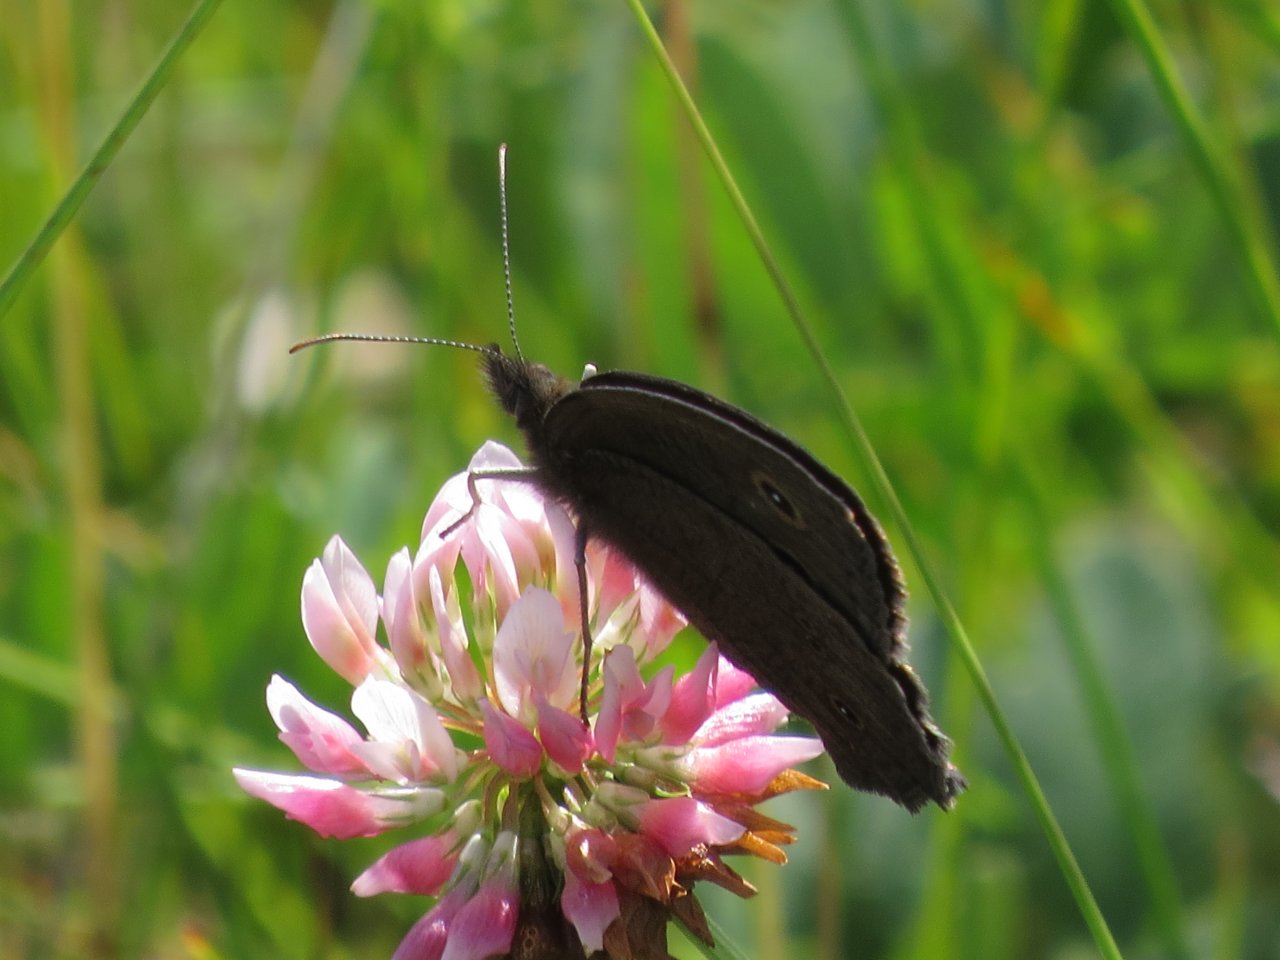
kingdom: Animalia
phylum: Arthropoda
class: Insecta
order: Lepidoptera
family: Nymphalidae
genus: Cercyonis
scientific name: Cercyonis pegala
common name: Common Wood-Nymph
